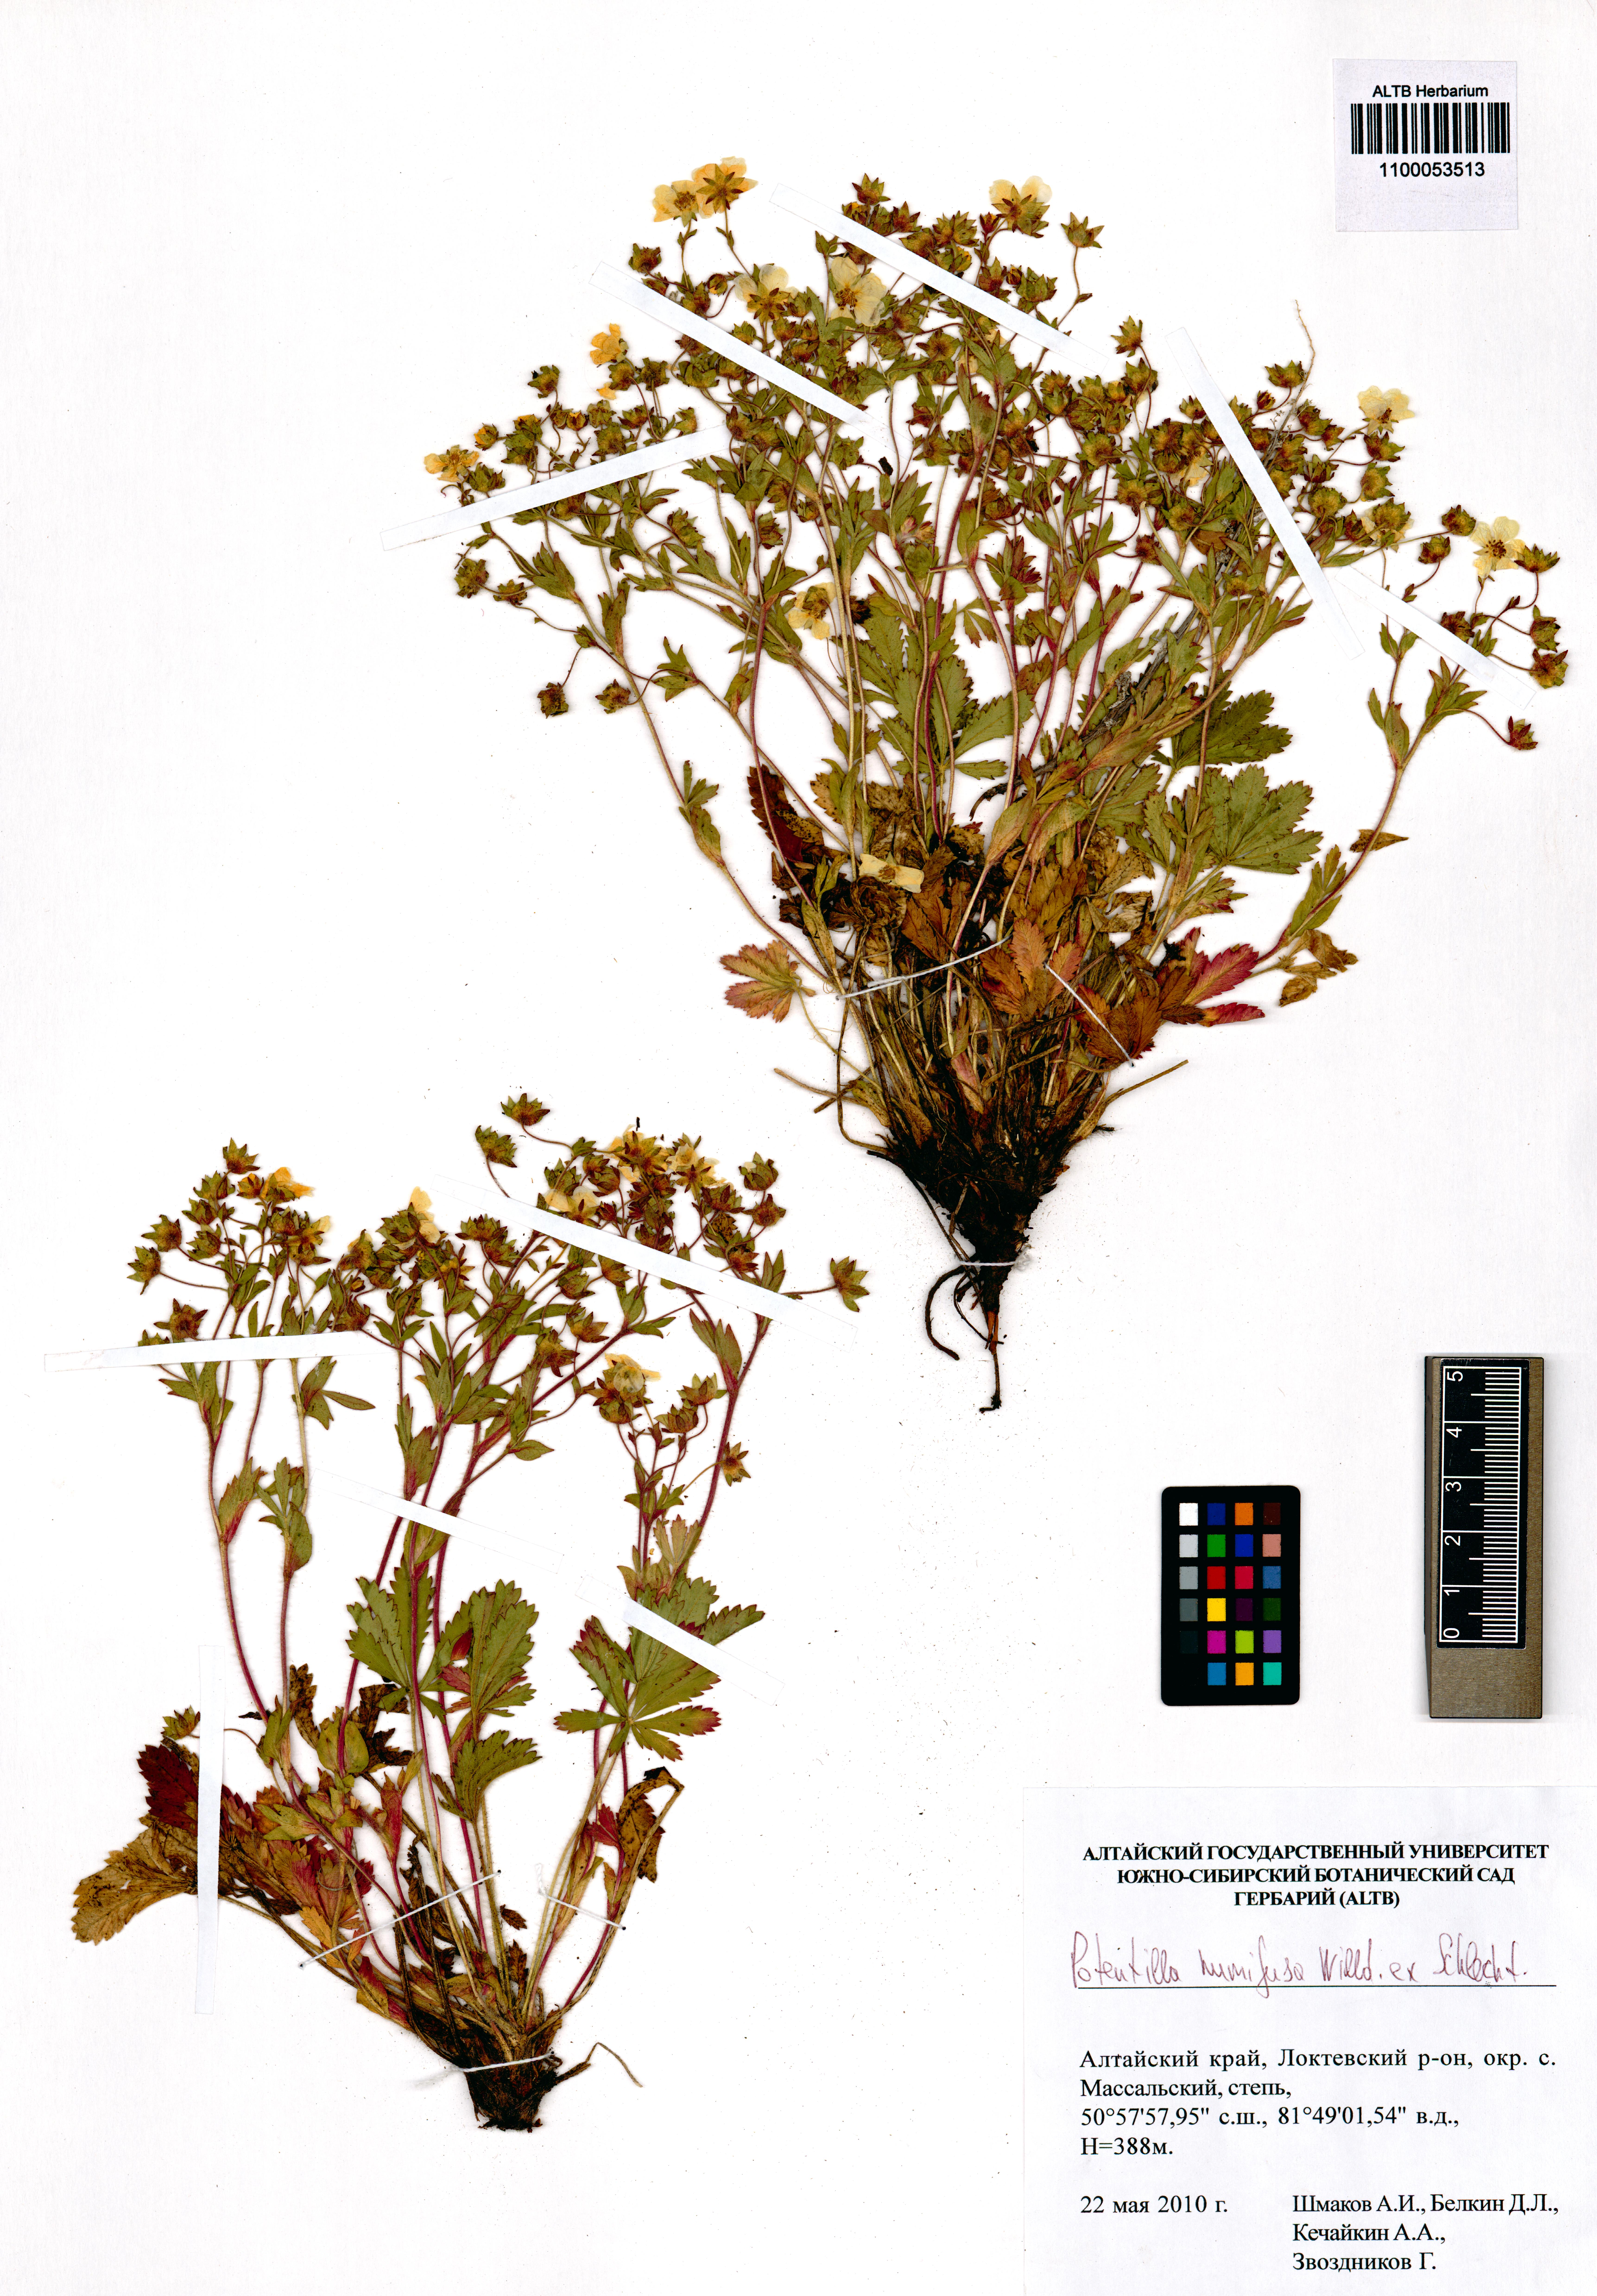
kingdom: Plantae
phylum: Tracheophyta
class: Magnoliopsida
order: Rosales
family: Rosaceae
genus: Potentilla
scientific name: Potentilla humifusa
